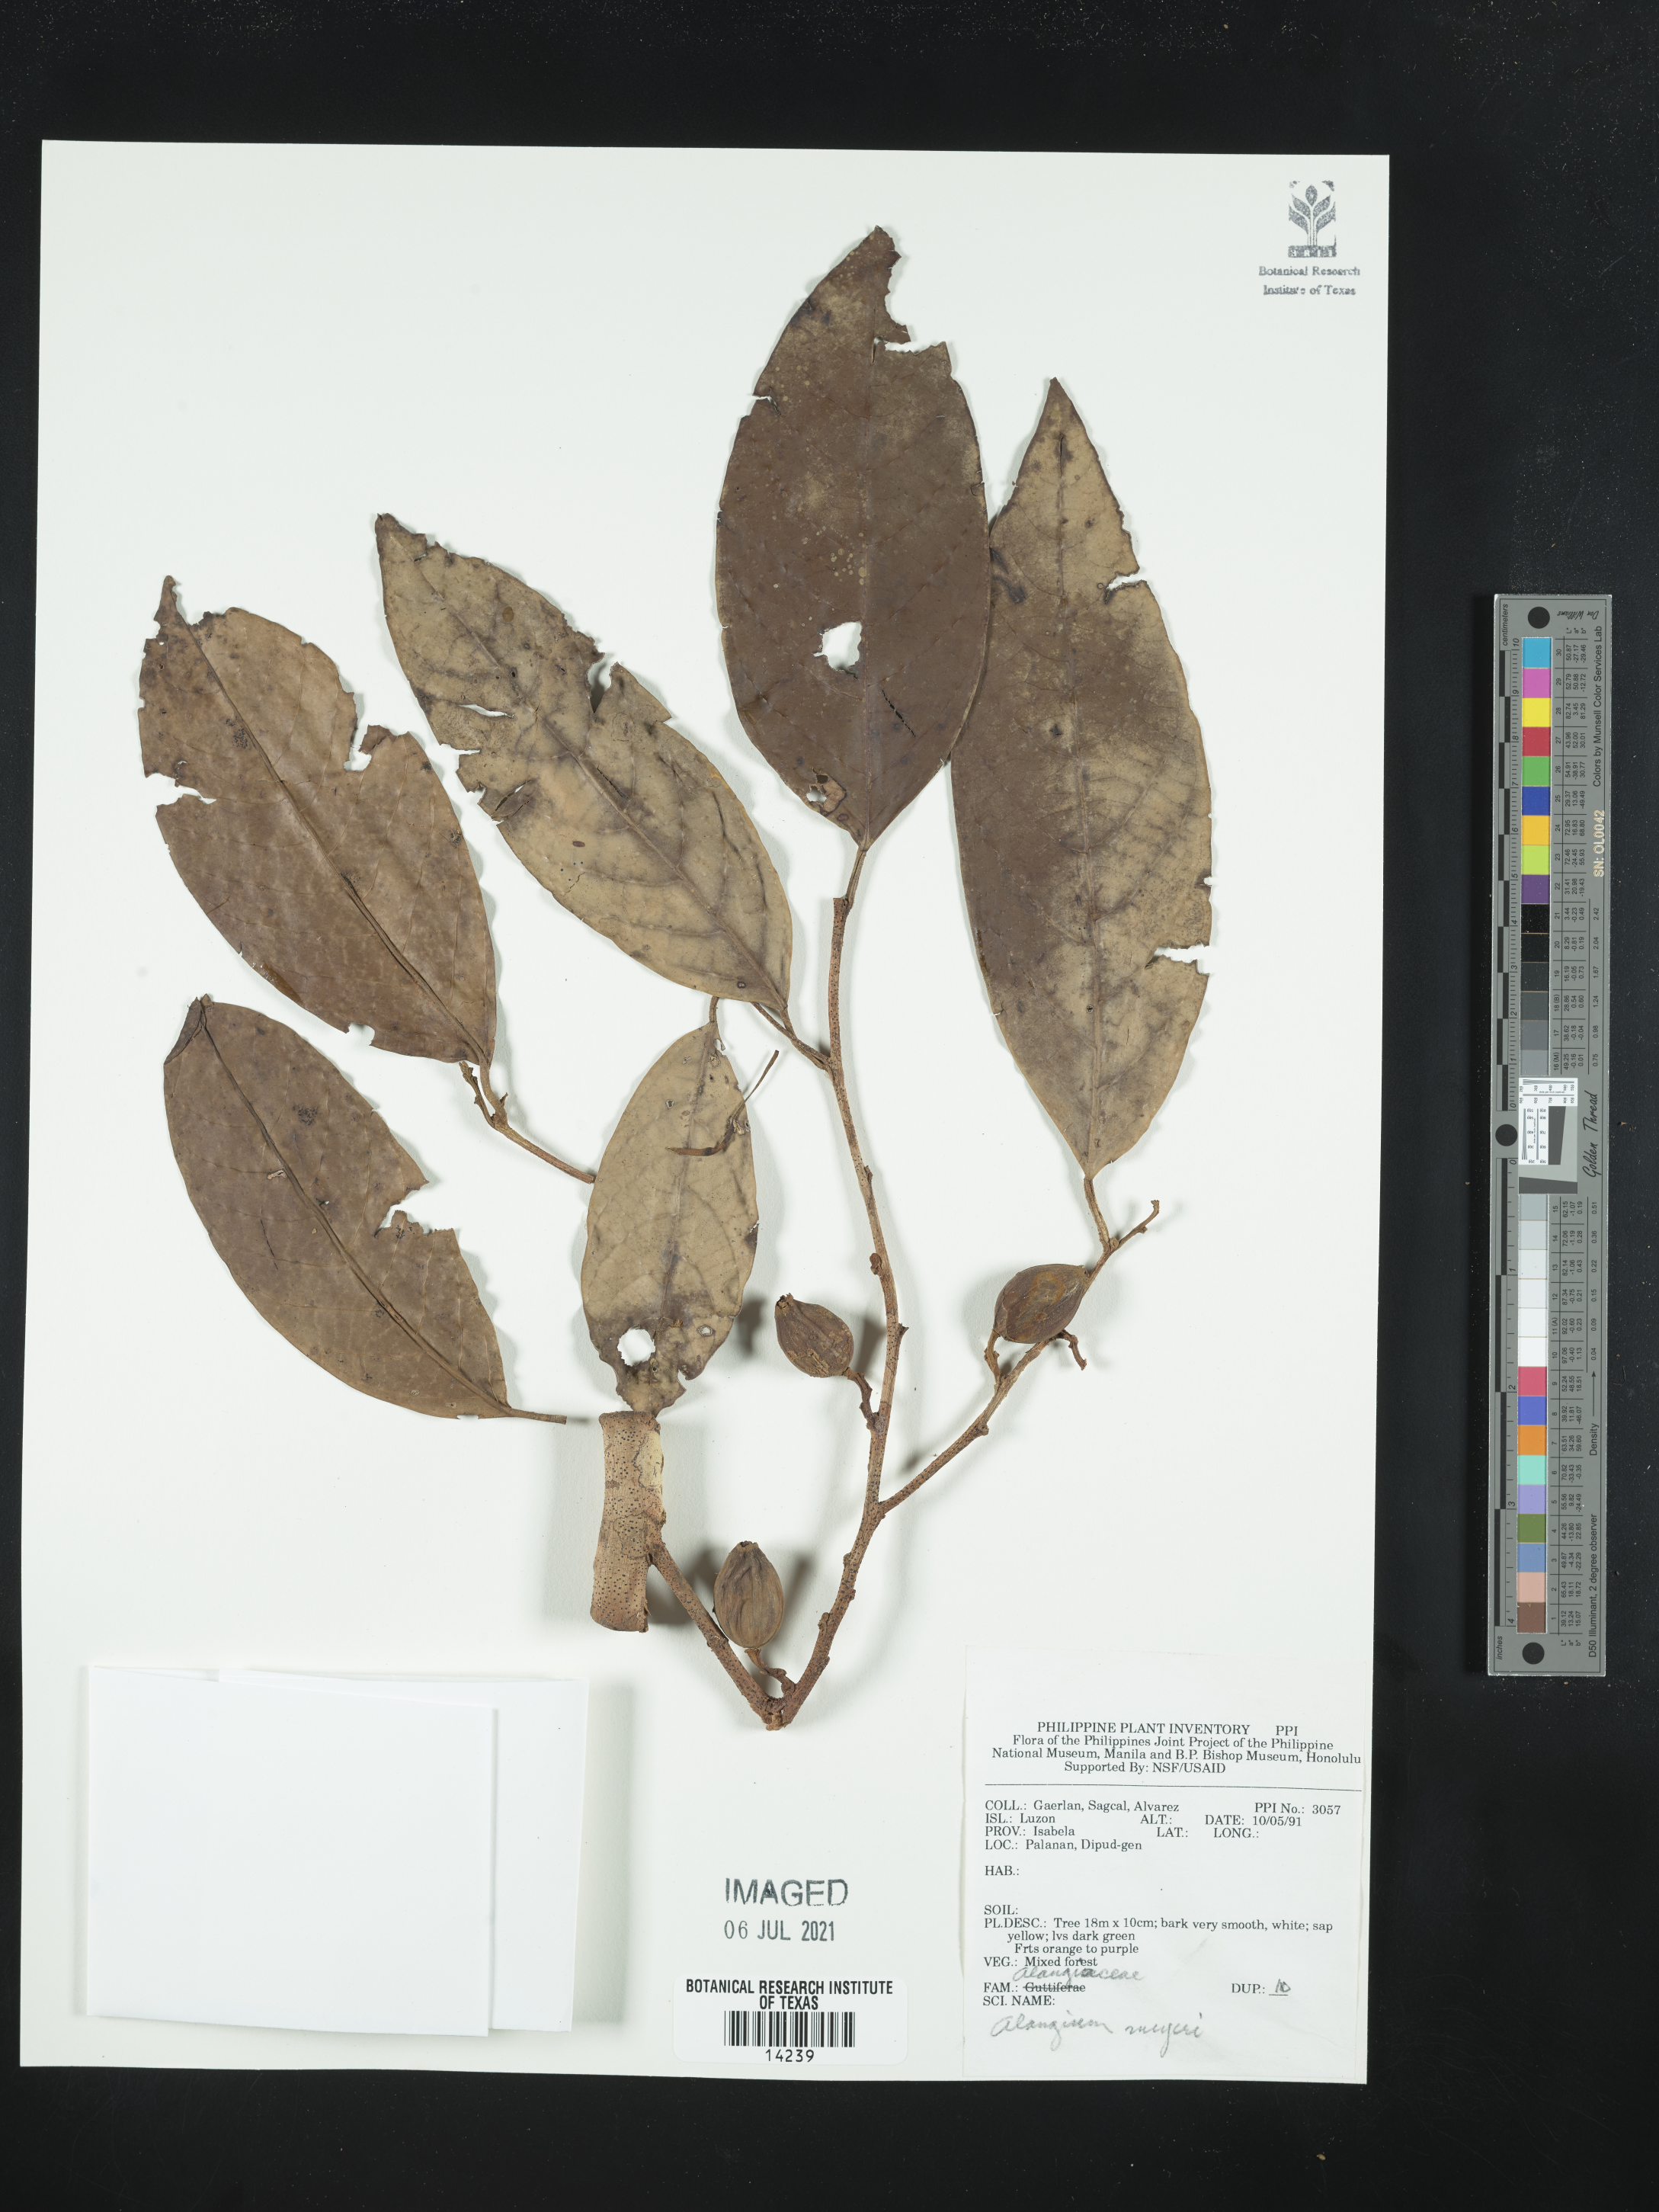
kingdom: Plantae
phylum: Tracheophyta
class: Magnoliopsida
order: Cornales
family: Cornaceae
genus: Alangium
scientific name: Alangium meyeri
